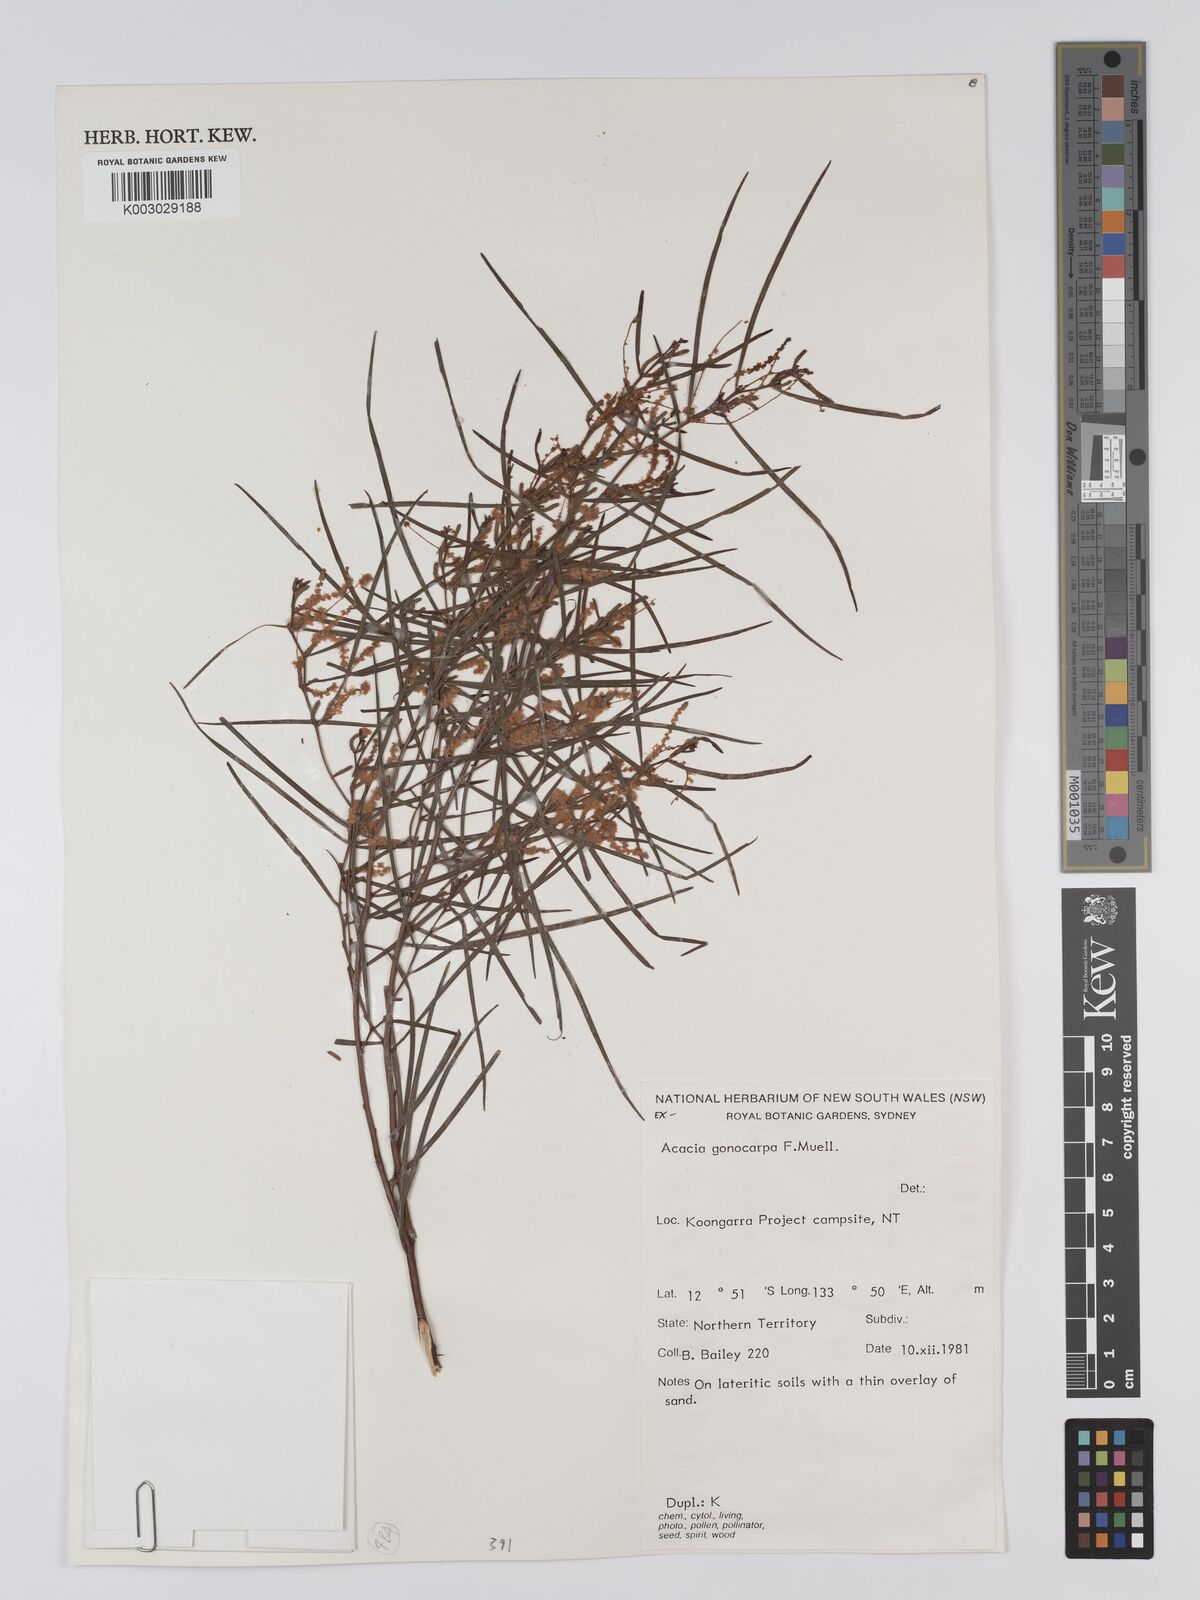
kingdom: Plantae
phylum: Tracheophyta
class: Magnoliopsida
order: Fabales
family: Fabaceae
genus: Acacia
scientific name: Acacia gonocarpa
